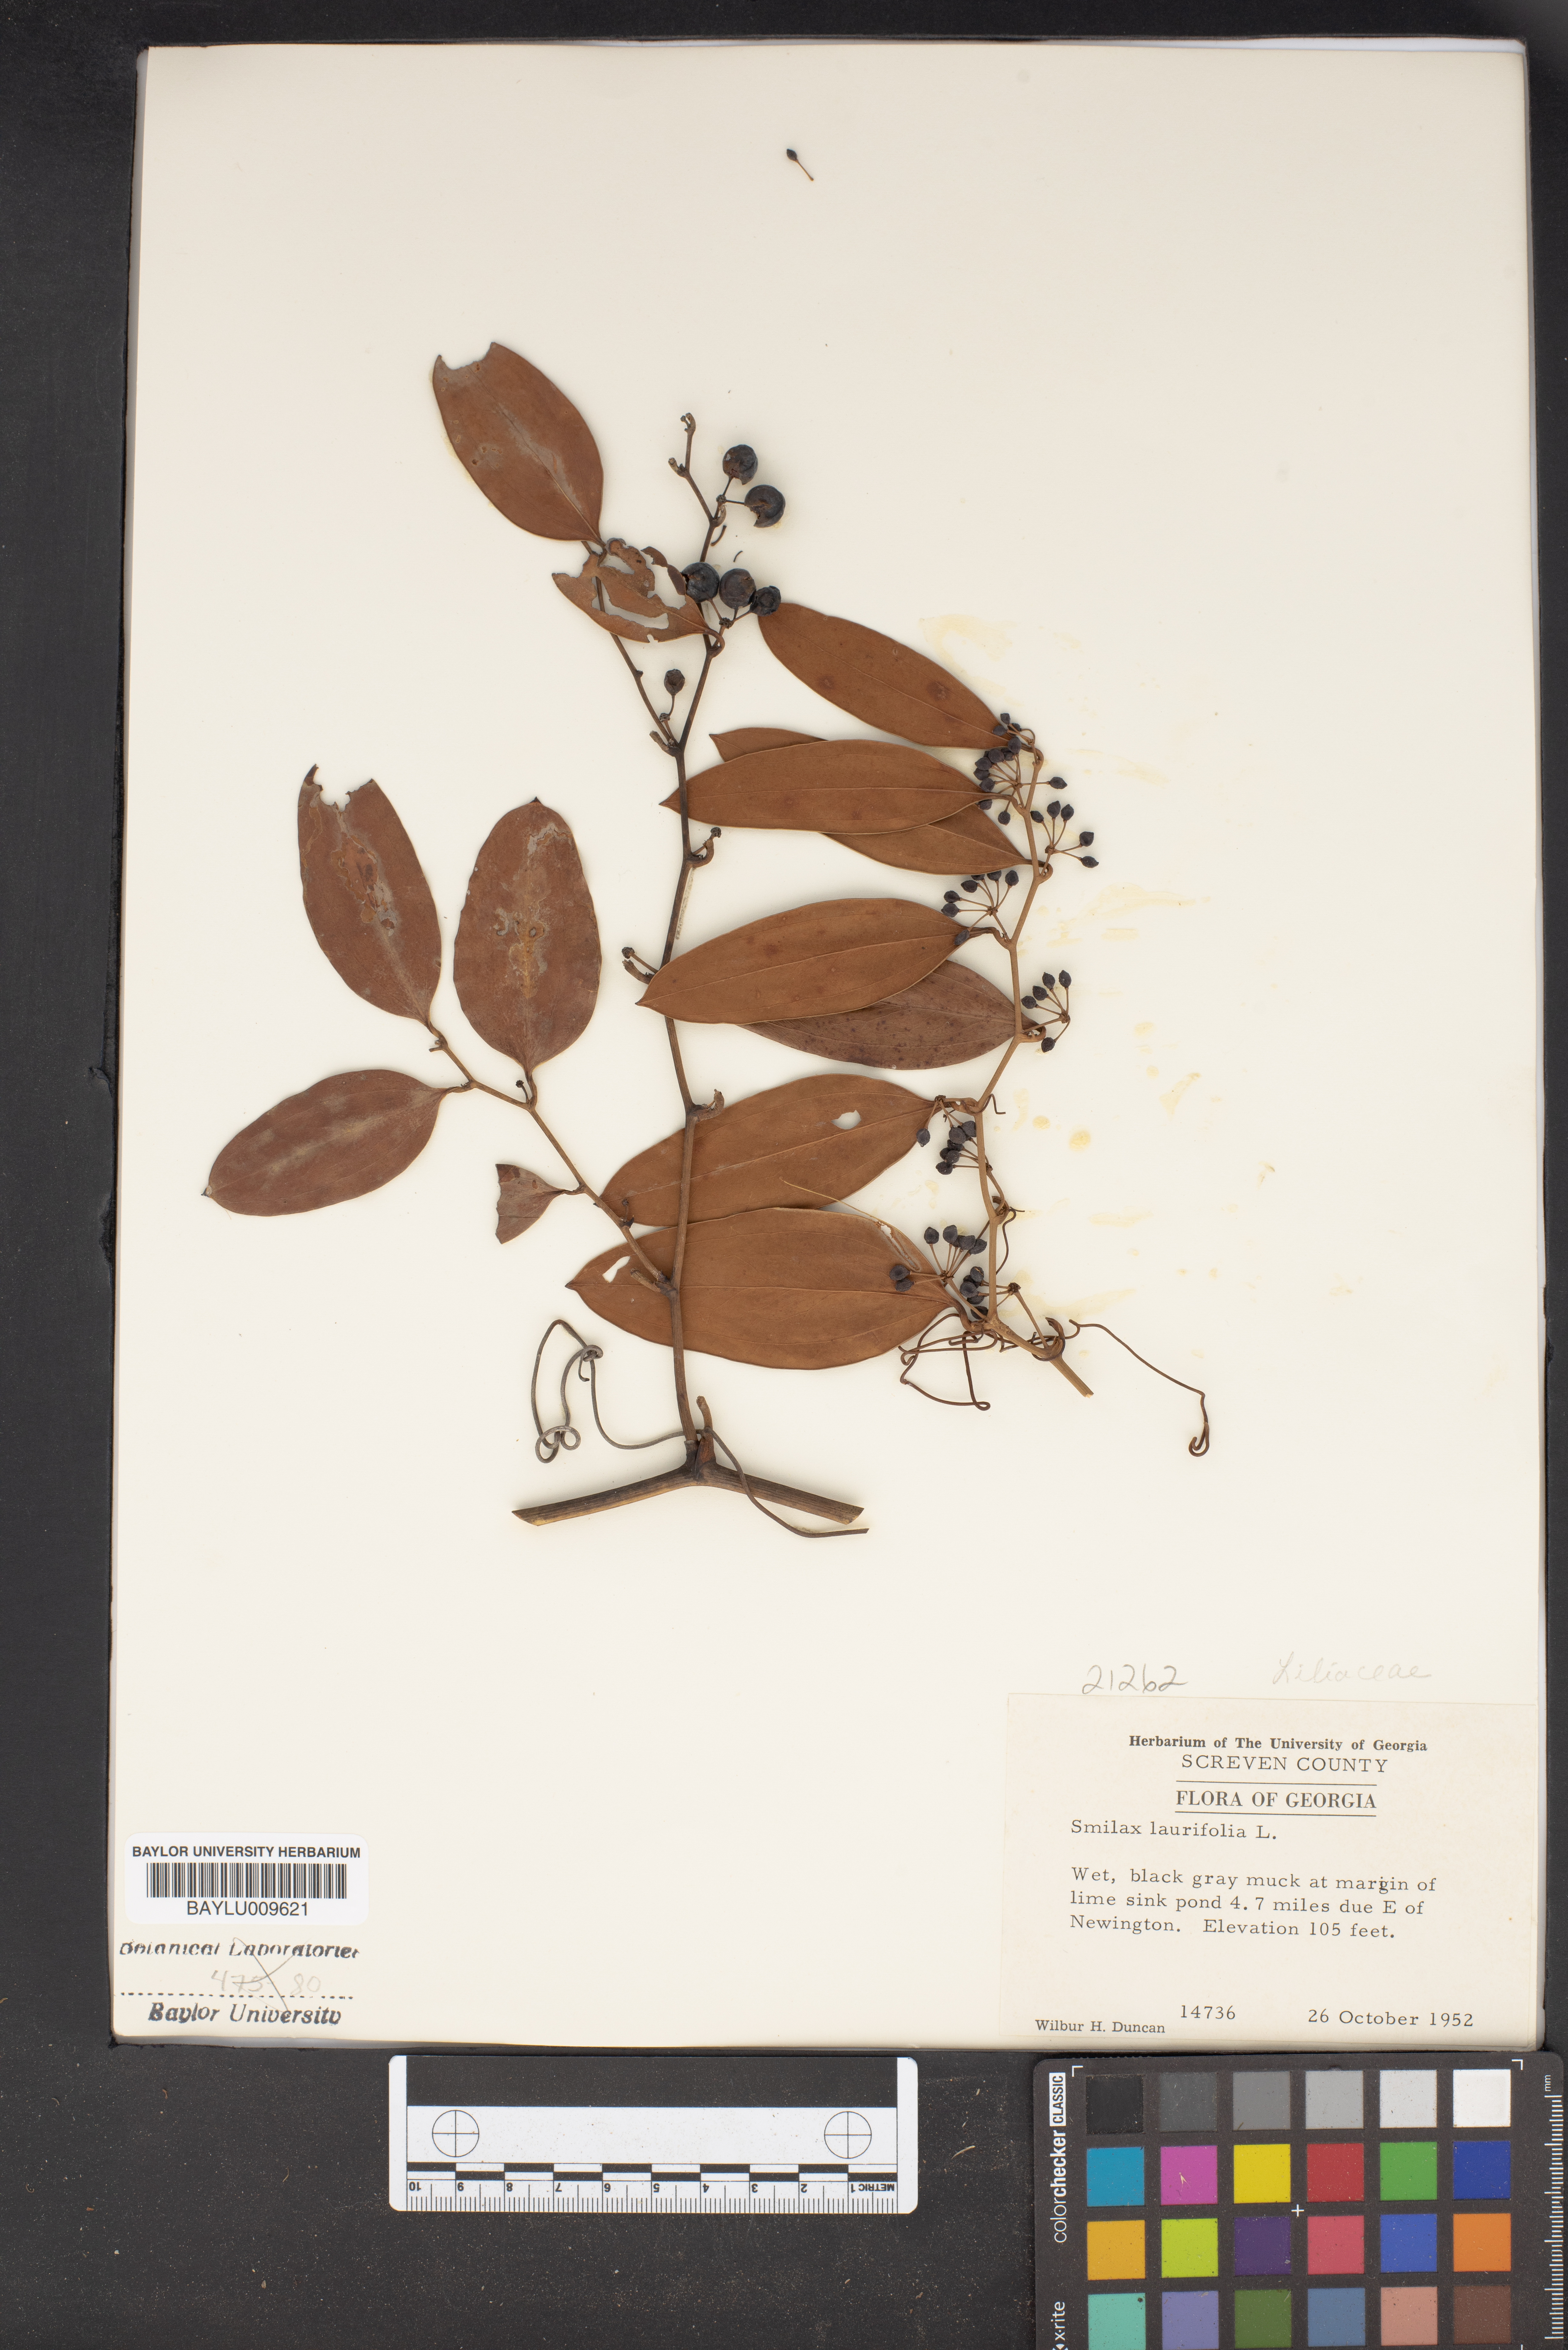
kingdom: Plantae
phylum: Tracheophyta
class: Liliopsida
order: Liliales
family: Smilacaceae
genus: Smilax
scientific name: Smilax laurifolia
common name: Bamboovine
